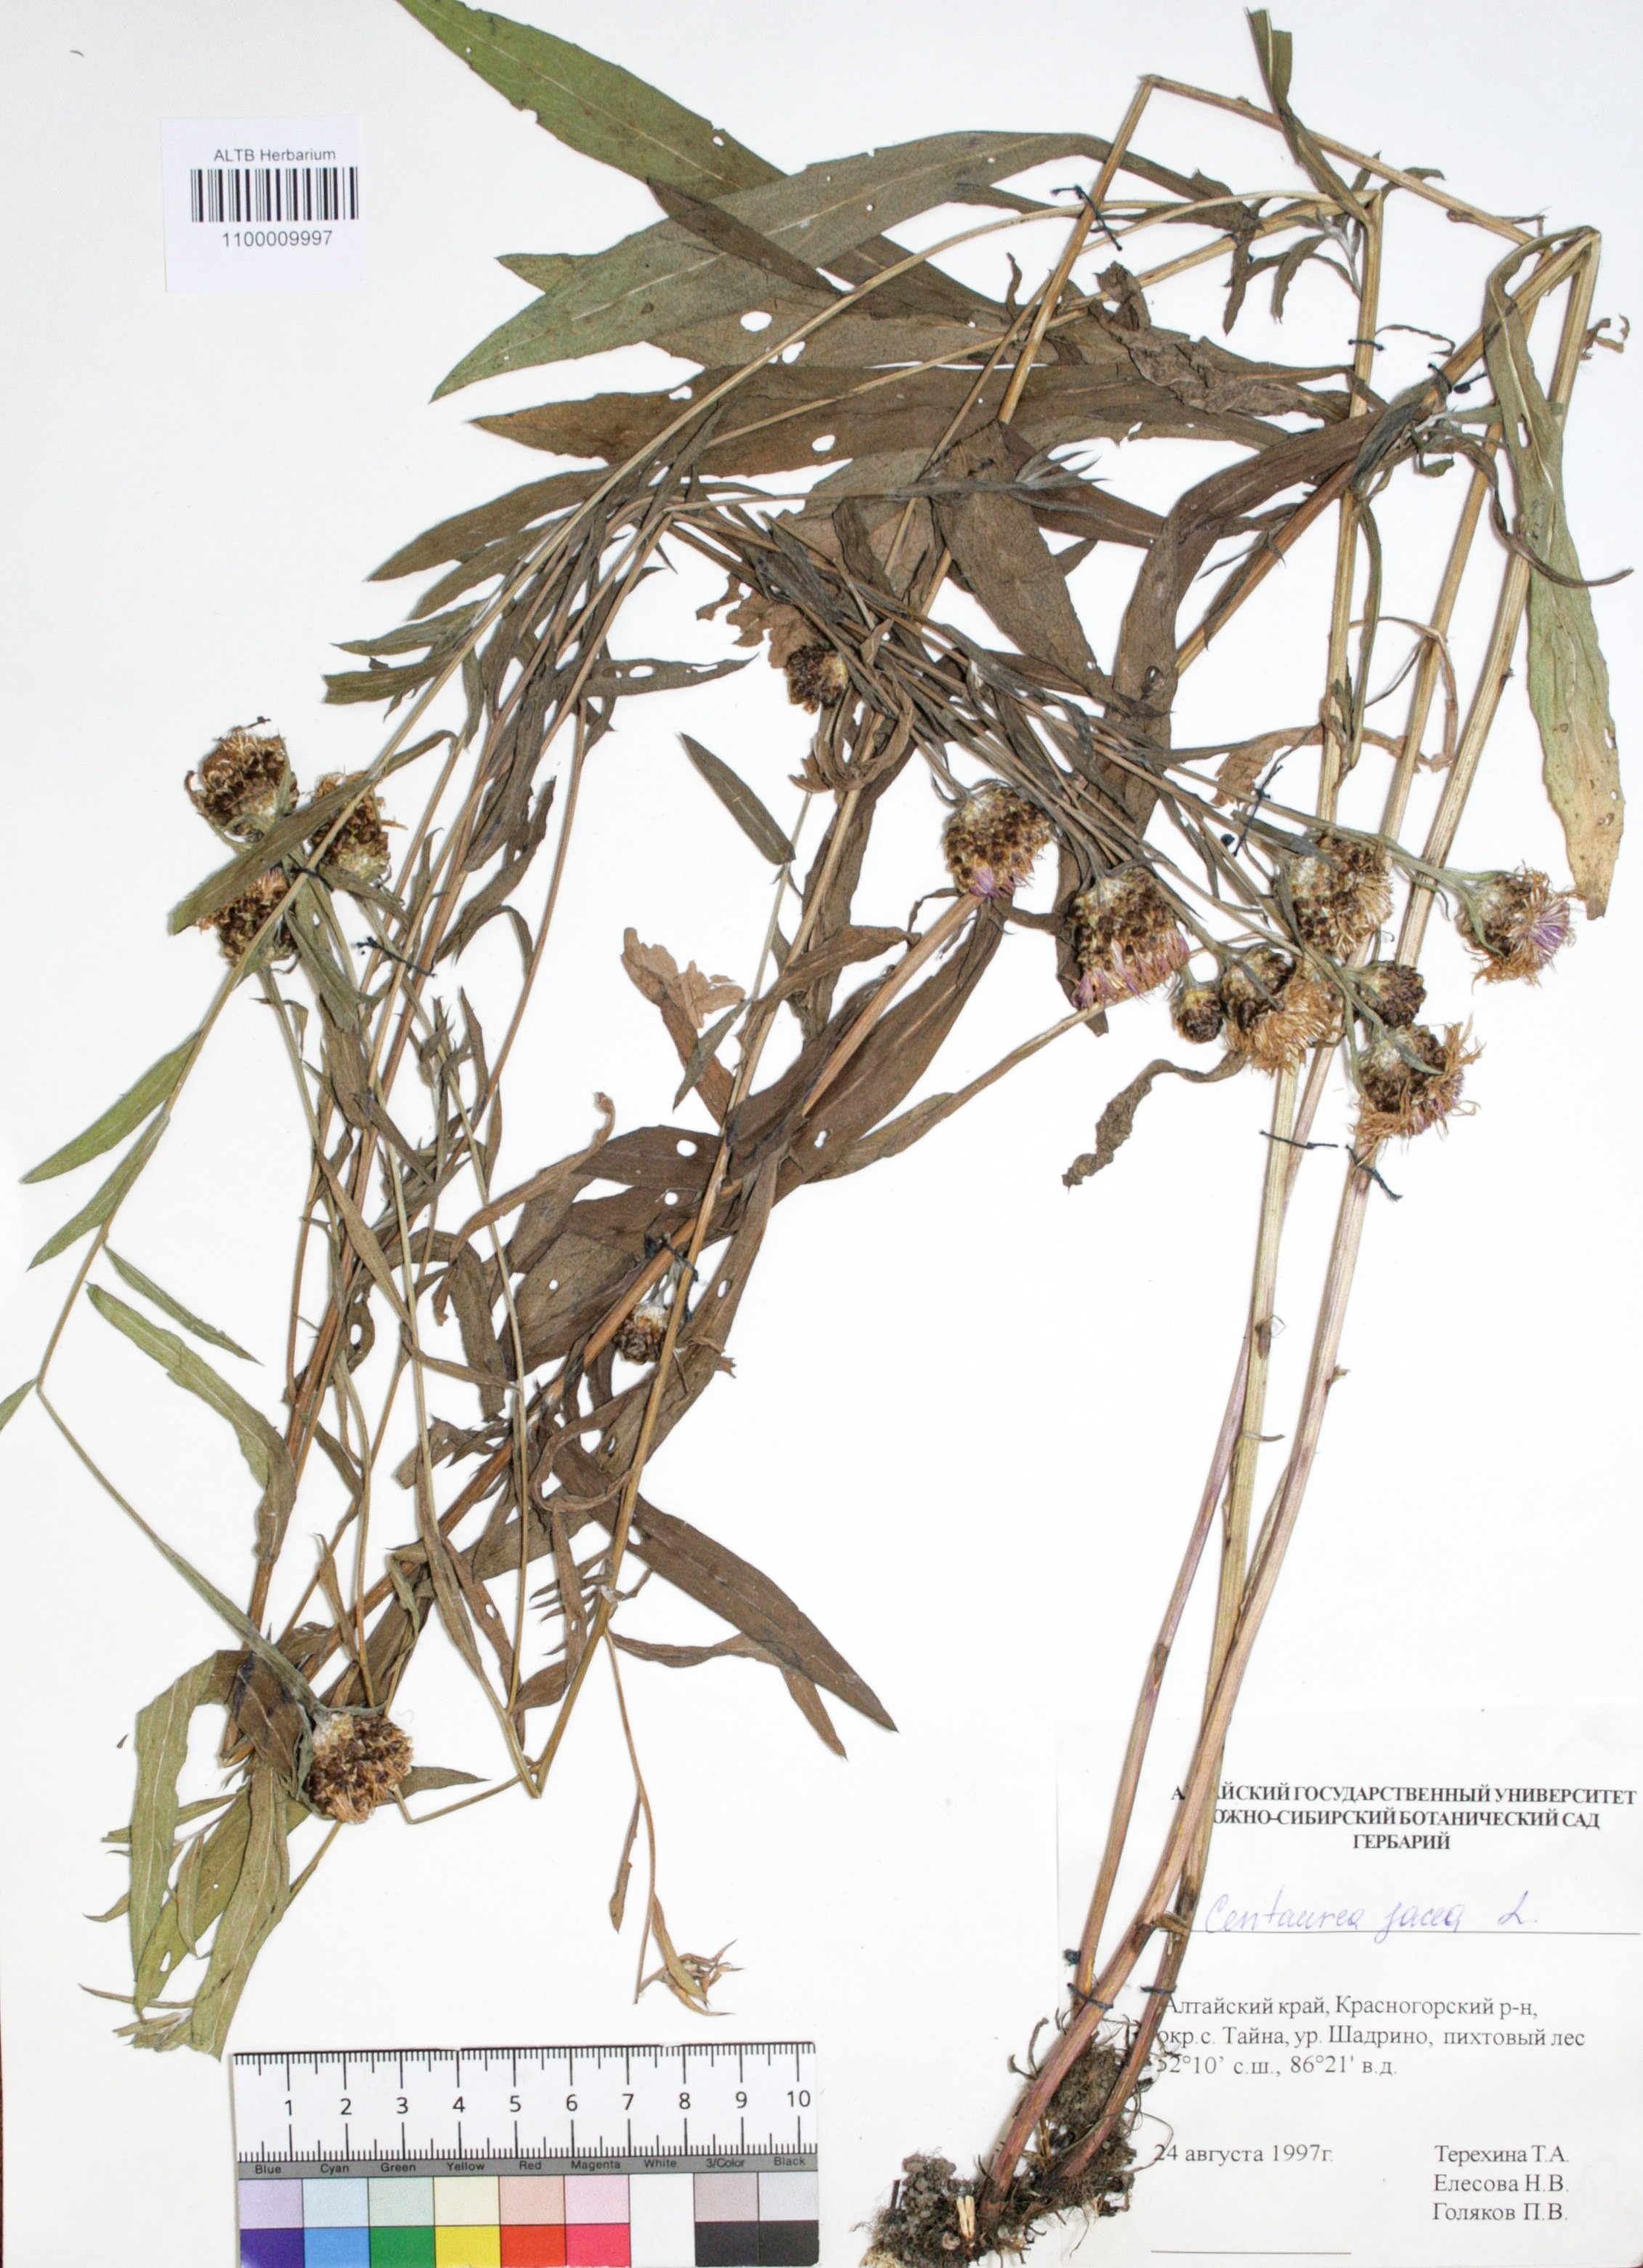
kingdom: Plantae
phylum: Tracheophyta
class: Magnoliopsida
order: Asterales
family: Asteraceae
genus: Centaurea
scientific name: Centaurea jacea
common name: Brown knapweed
